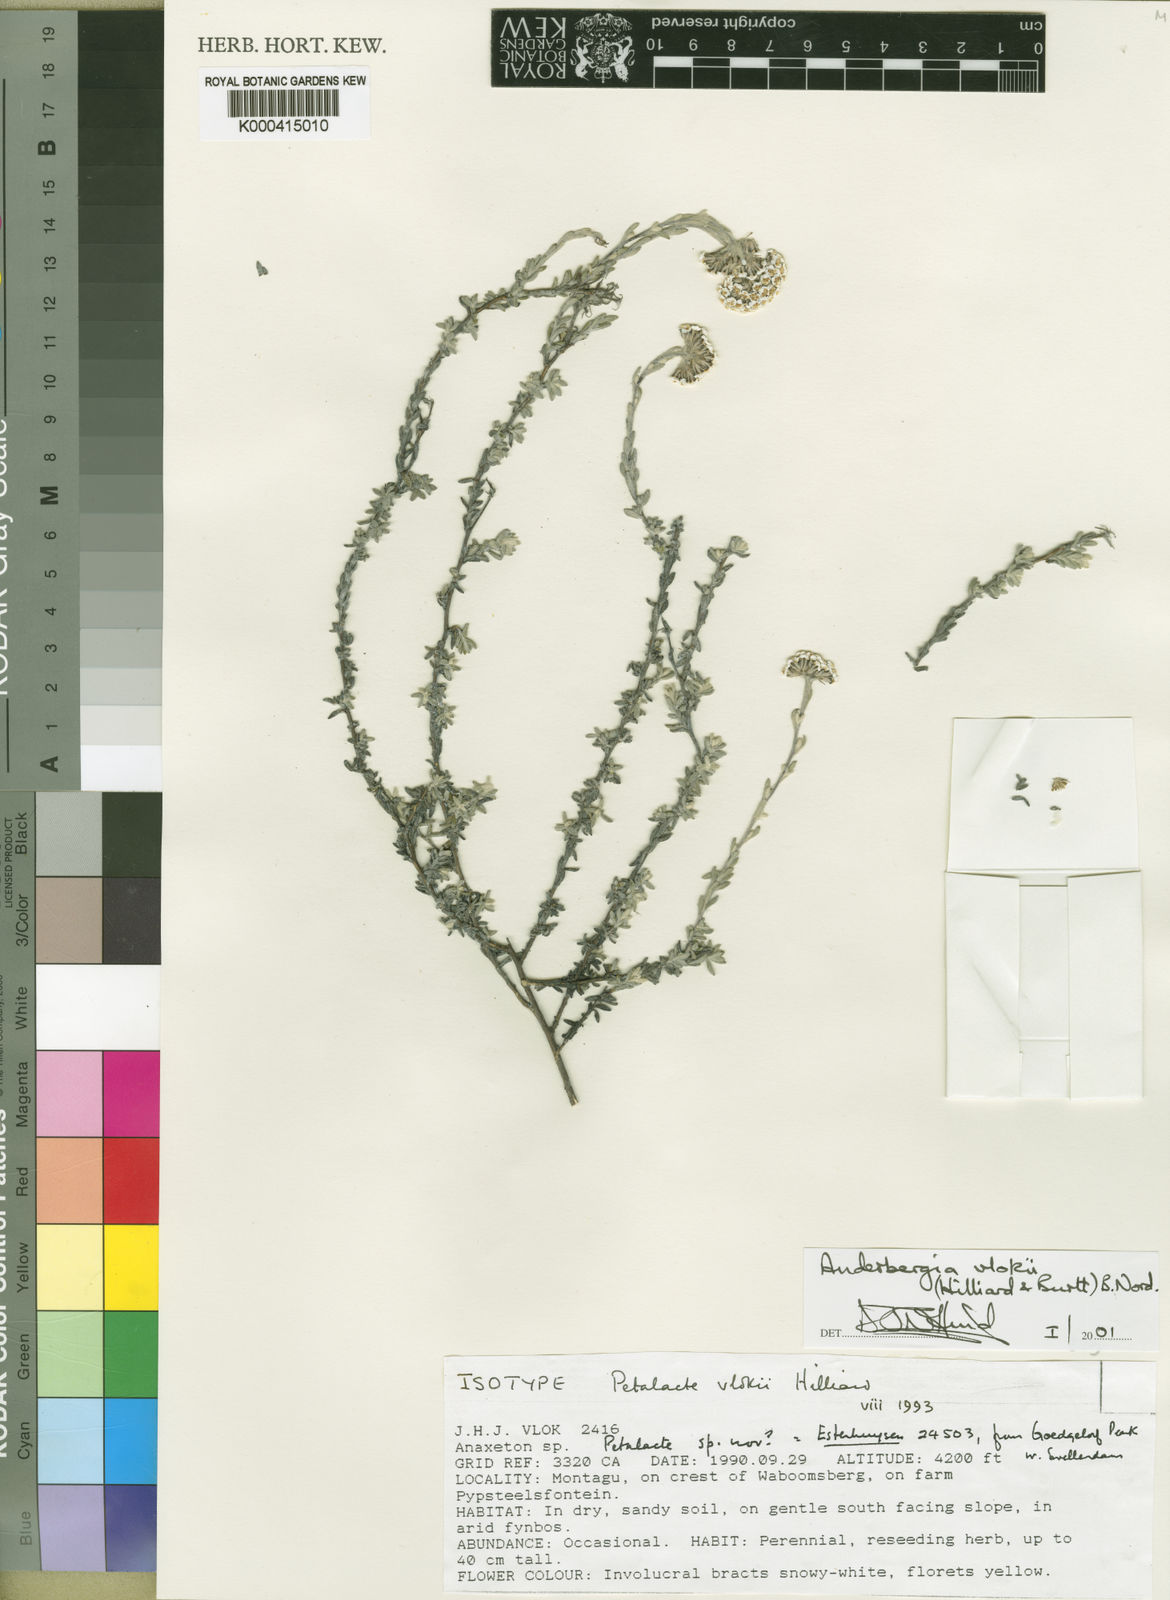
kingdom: Plantae
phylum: Tracheophyta
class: Magnoliopsida
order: Asterales
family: Asteraceae
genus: Anderbergia
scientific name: Anderbergia vlokii
